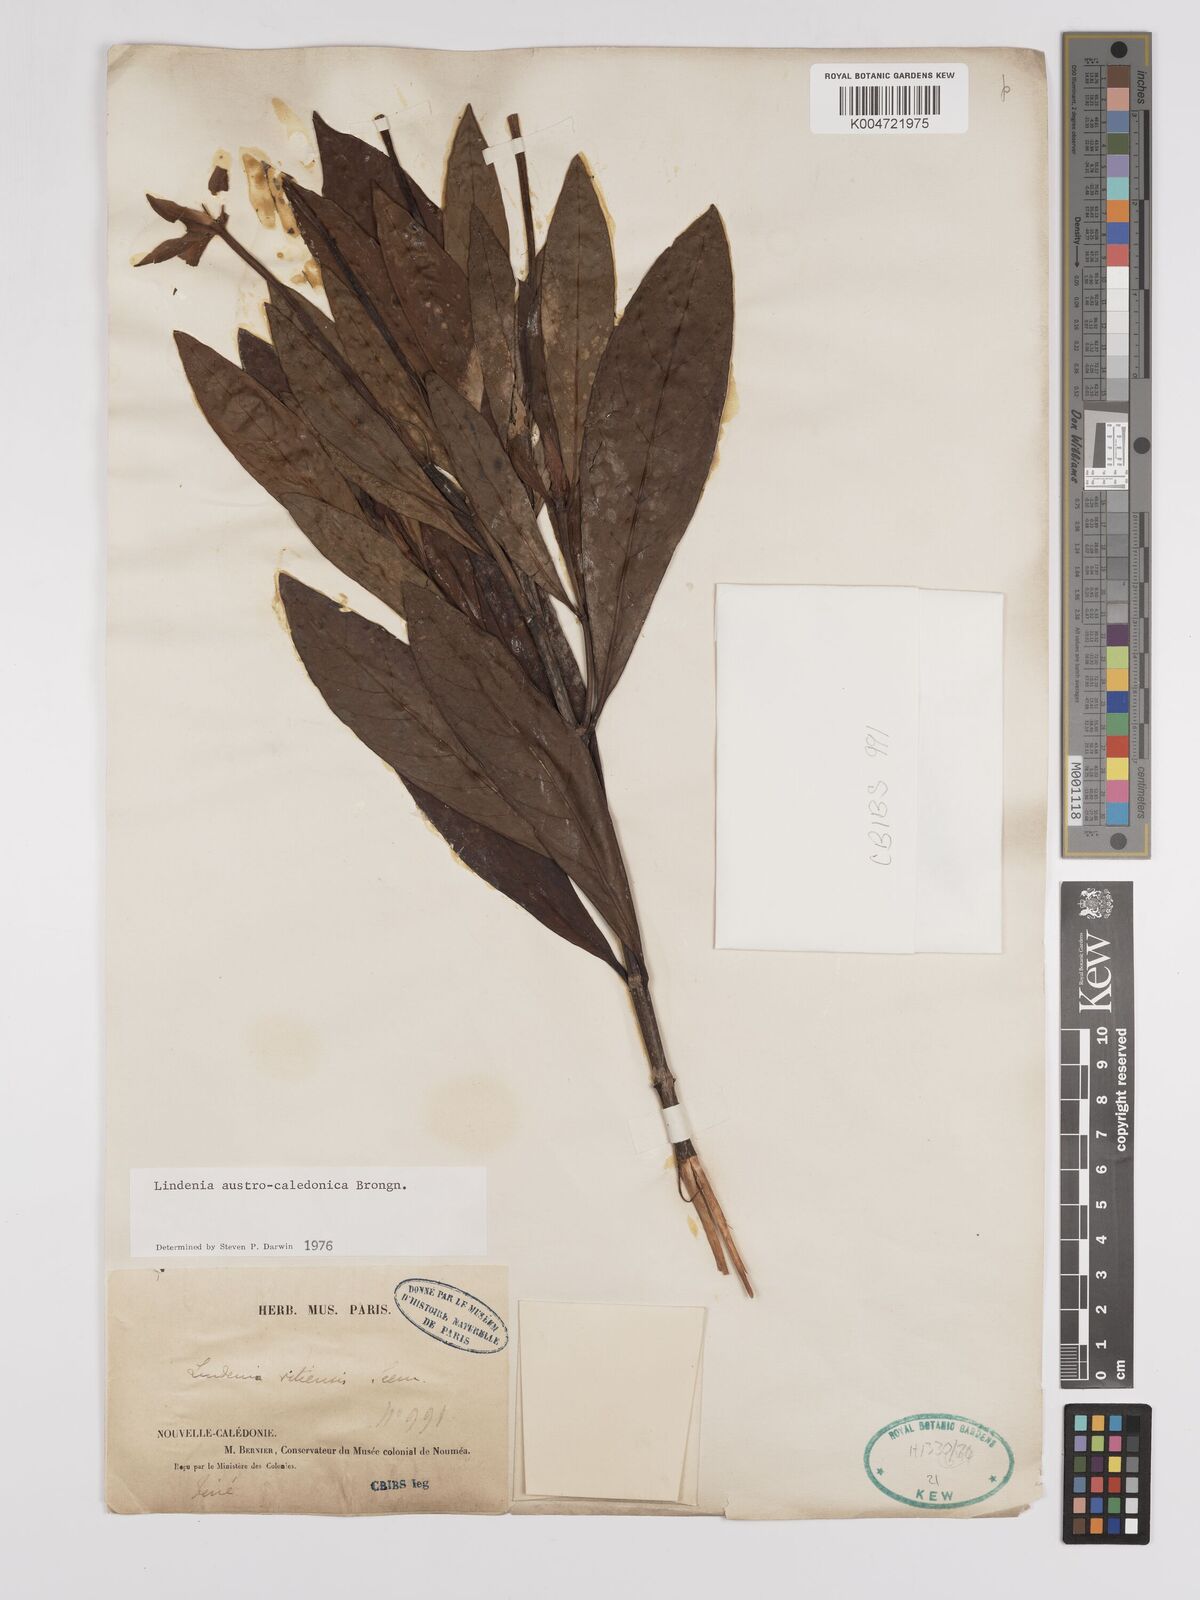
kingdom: Plantae
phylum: Tracheophyta
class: Magnoliopsida
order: Gentianales
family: Rubiaceae
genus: Augusta
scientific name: Augusta austrocaledonica
